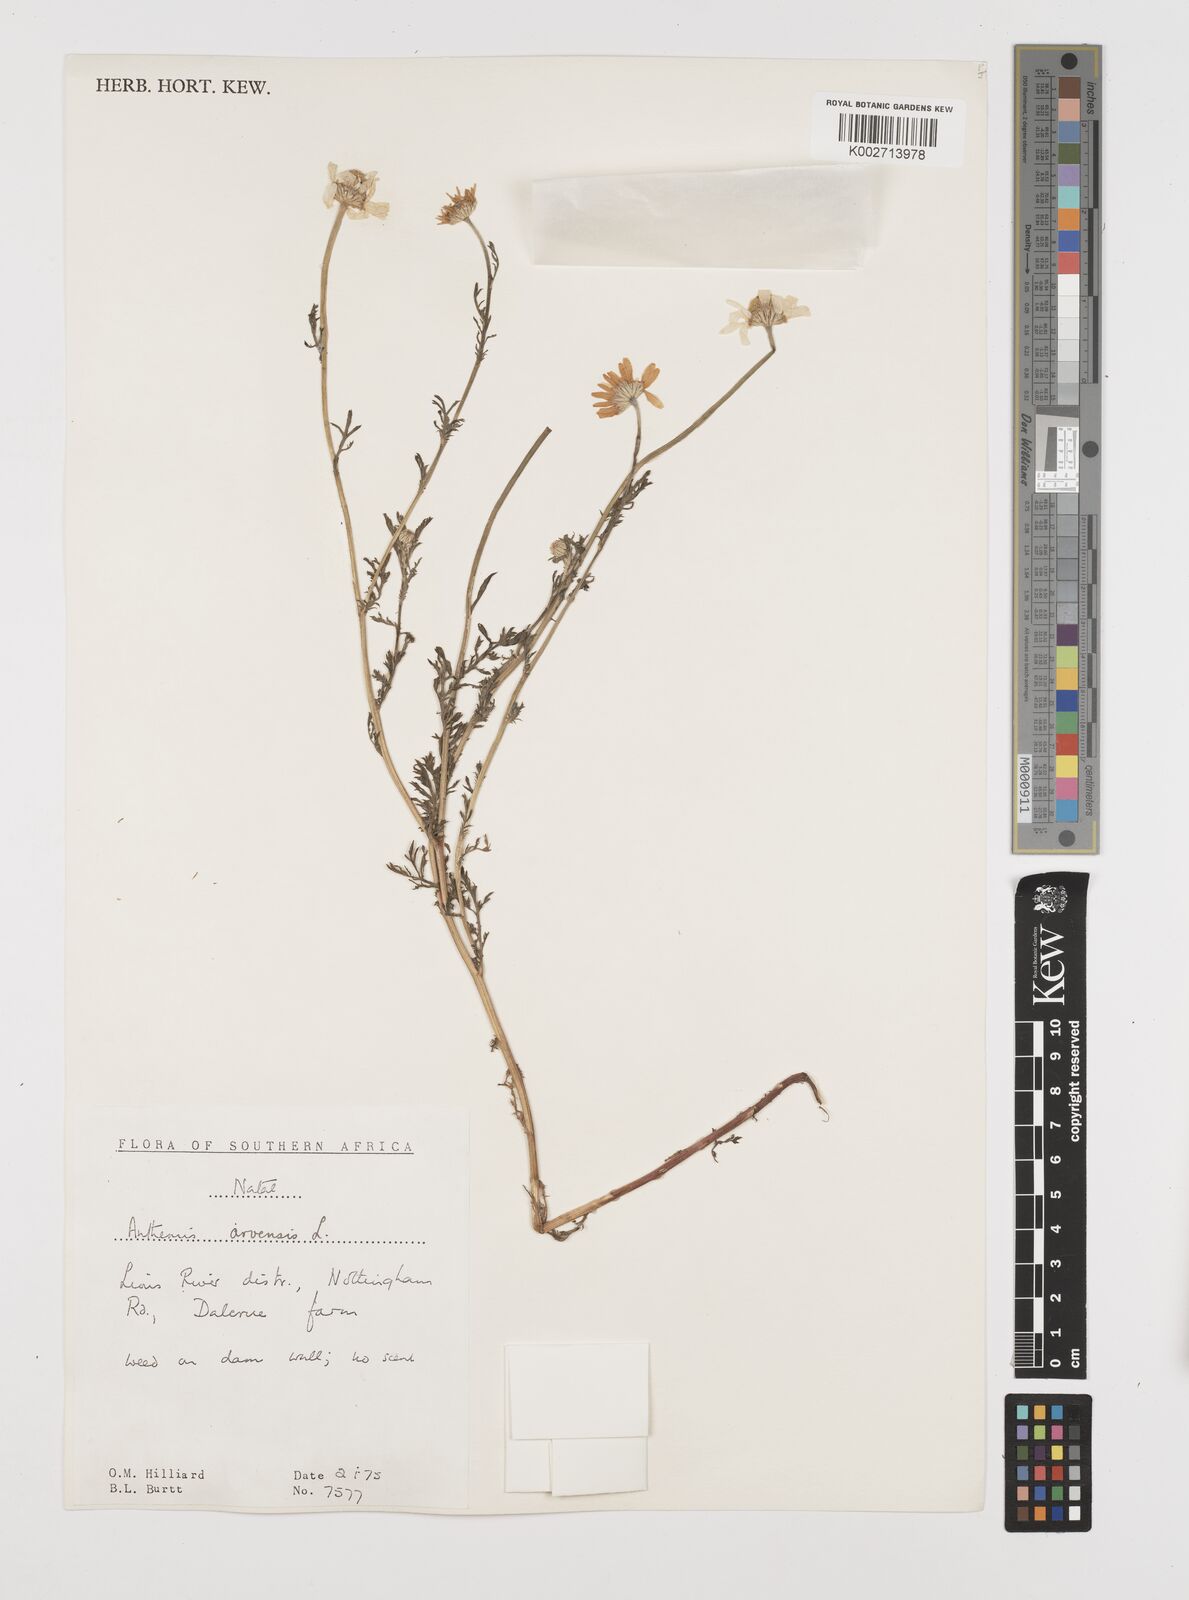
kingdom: Plantae
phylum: Tracheophyta
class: Magnoliopsida
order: Asterales
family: Asteraceae
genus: Anthemis
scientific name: Anthemis arvensis
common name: Corn chamomile
